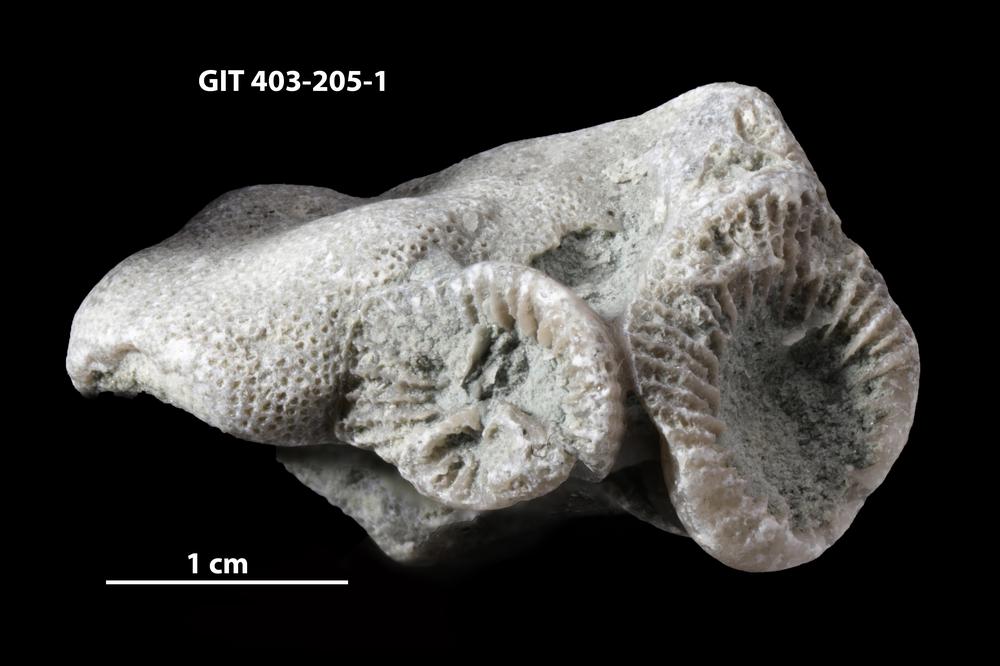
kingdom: Animalia
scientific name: Animalia
